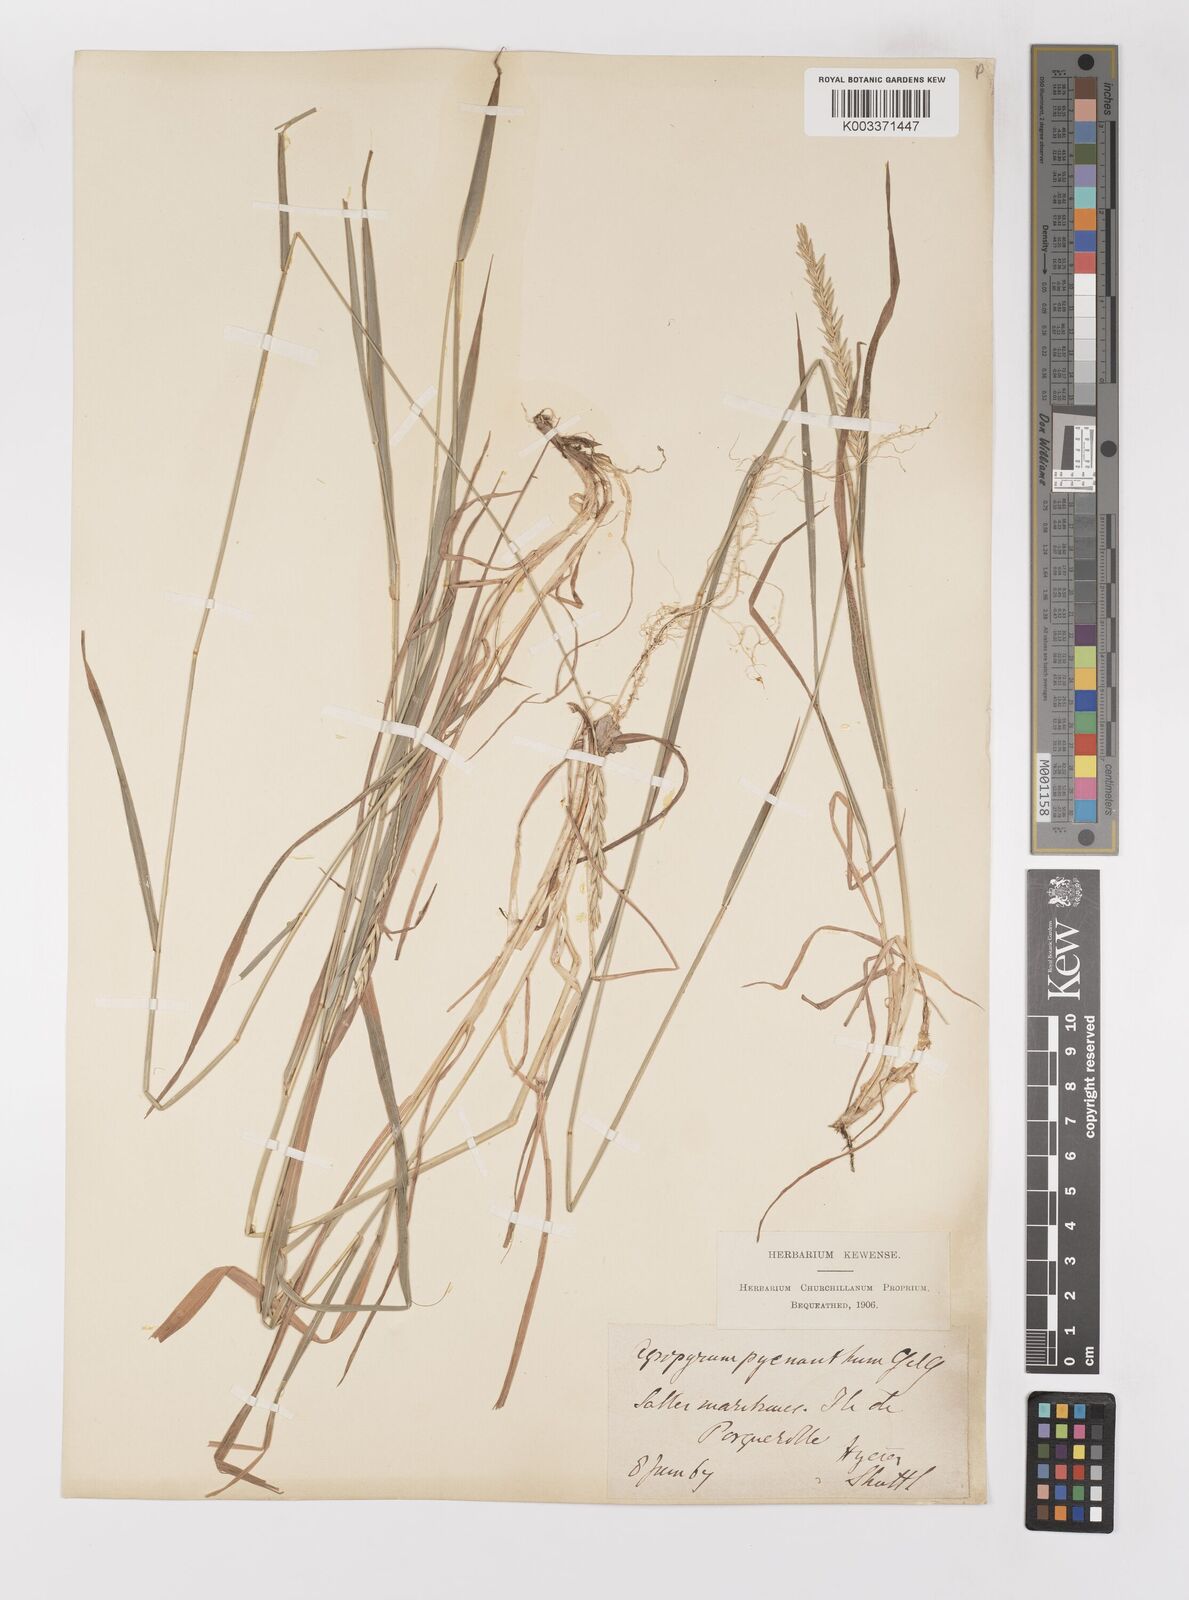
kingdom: Plantae
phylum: Tracheophyta
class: Liliopsida
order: Poales
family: Poaceae
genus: Elymus
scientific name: Elymus repens
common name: Quackgrass
